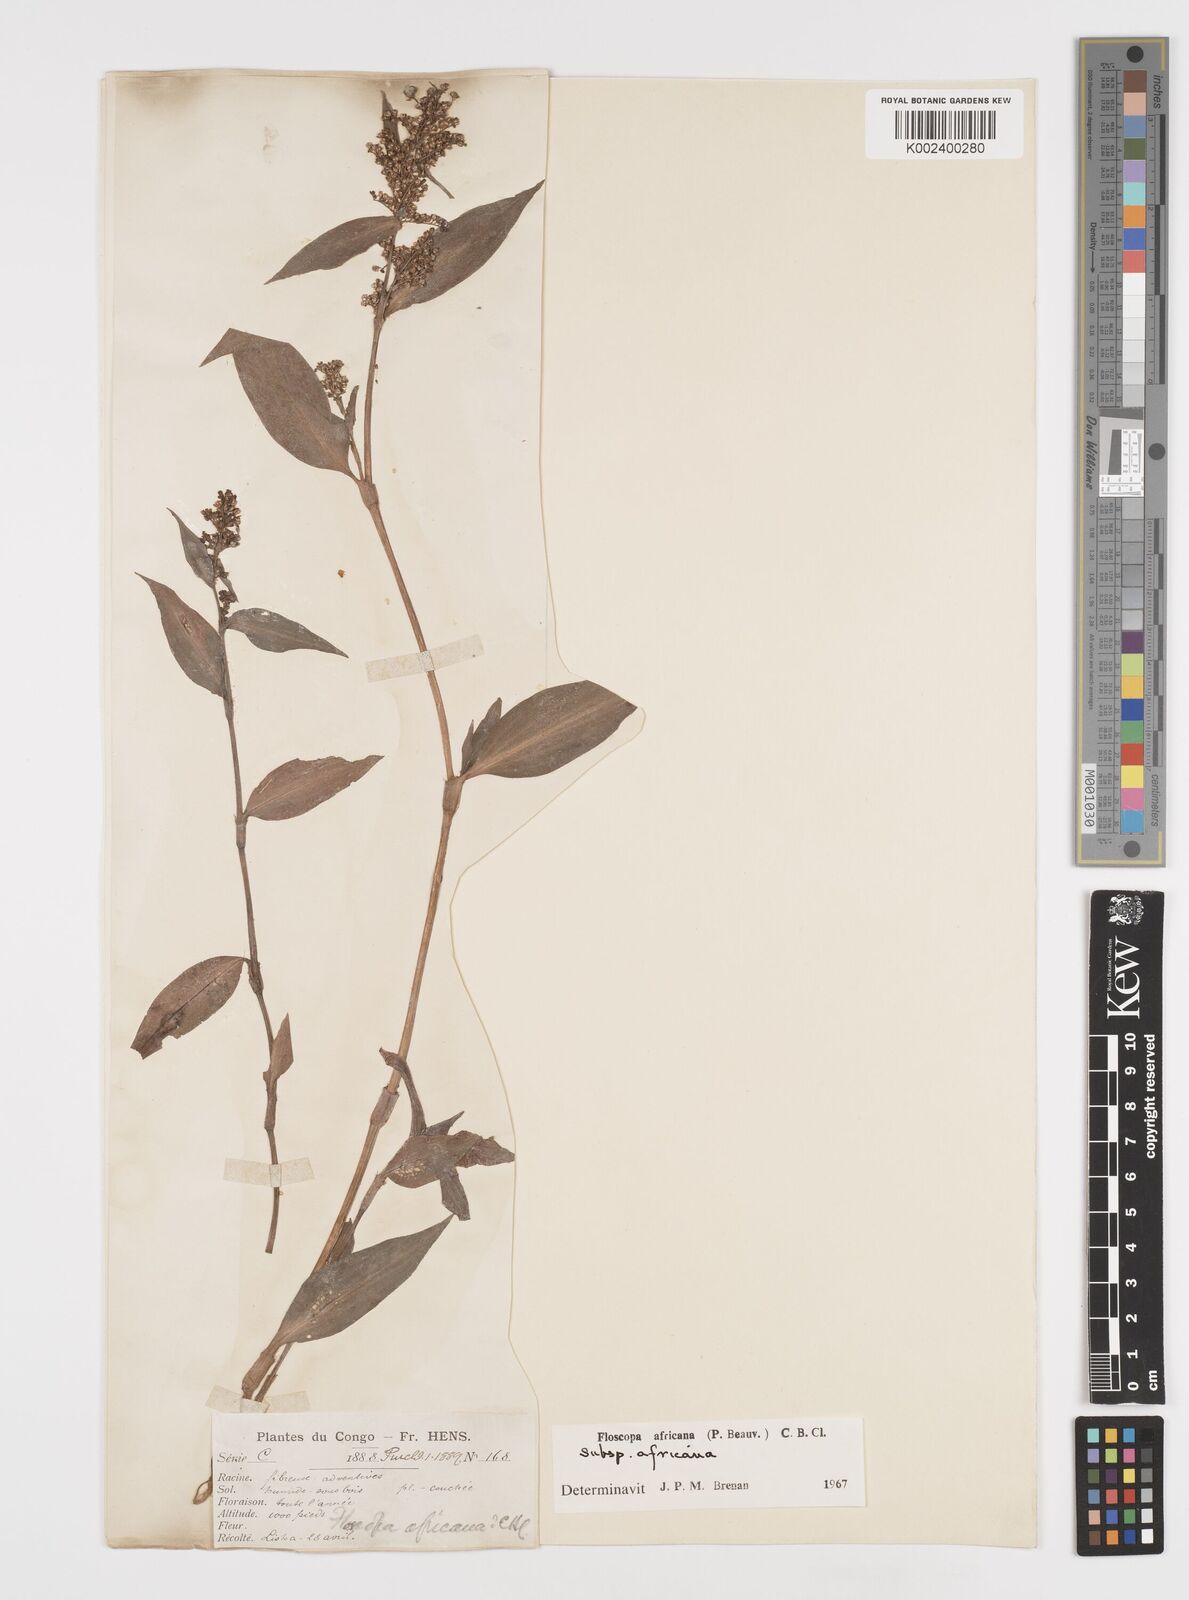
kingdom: Plantae
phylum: Tracheophyta
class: Liliopsida
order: Commelinales
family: Commelinaceae
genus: Floscopa
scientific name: Floscopa africana
